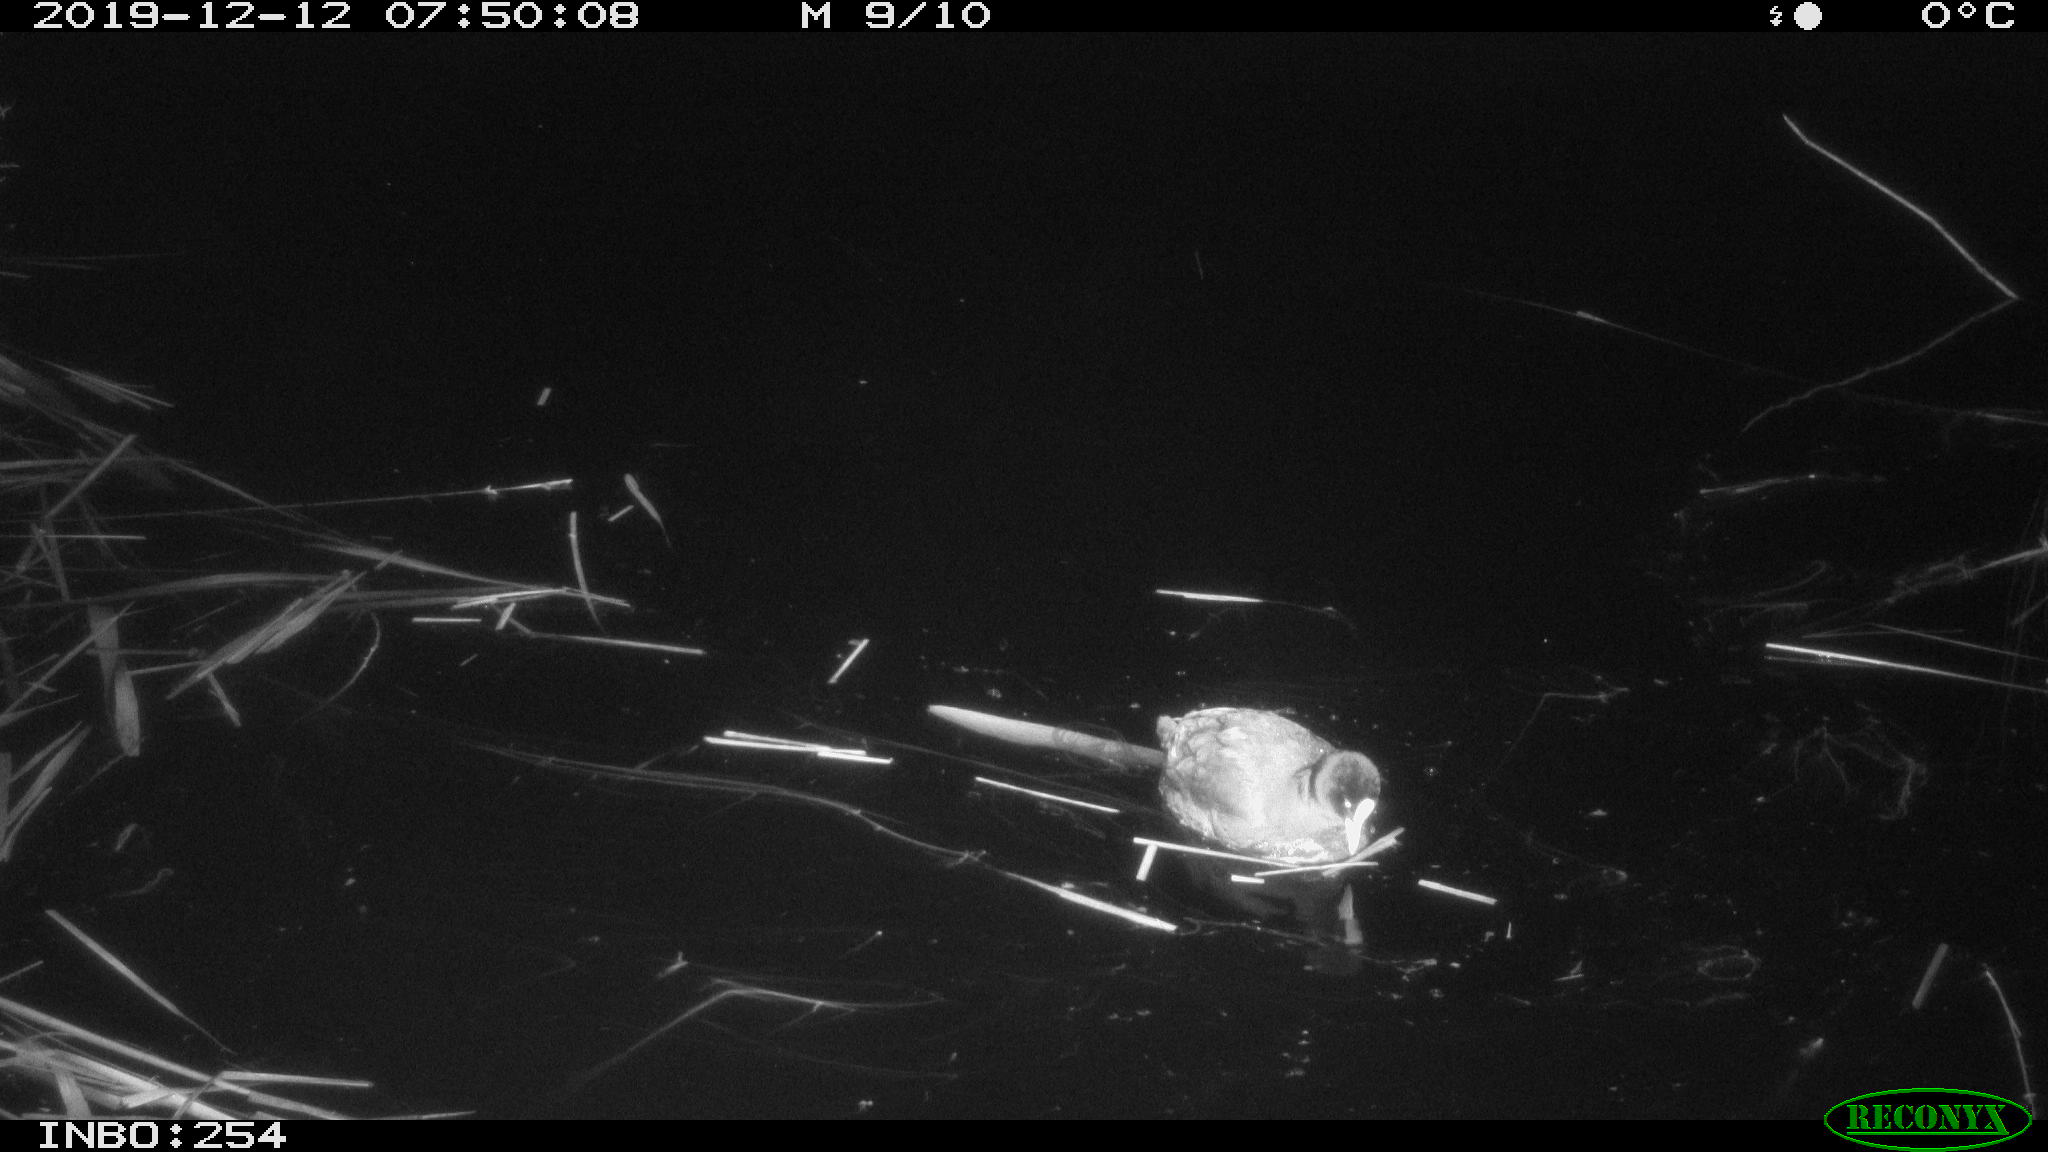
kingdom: Animalia
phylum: Chordata
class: Aves
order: Gruiformes
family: Rallidae
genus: Fulica
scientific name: Fulica atra
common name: Eurasian coot
